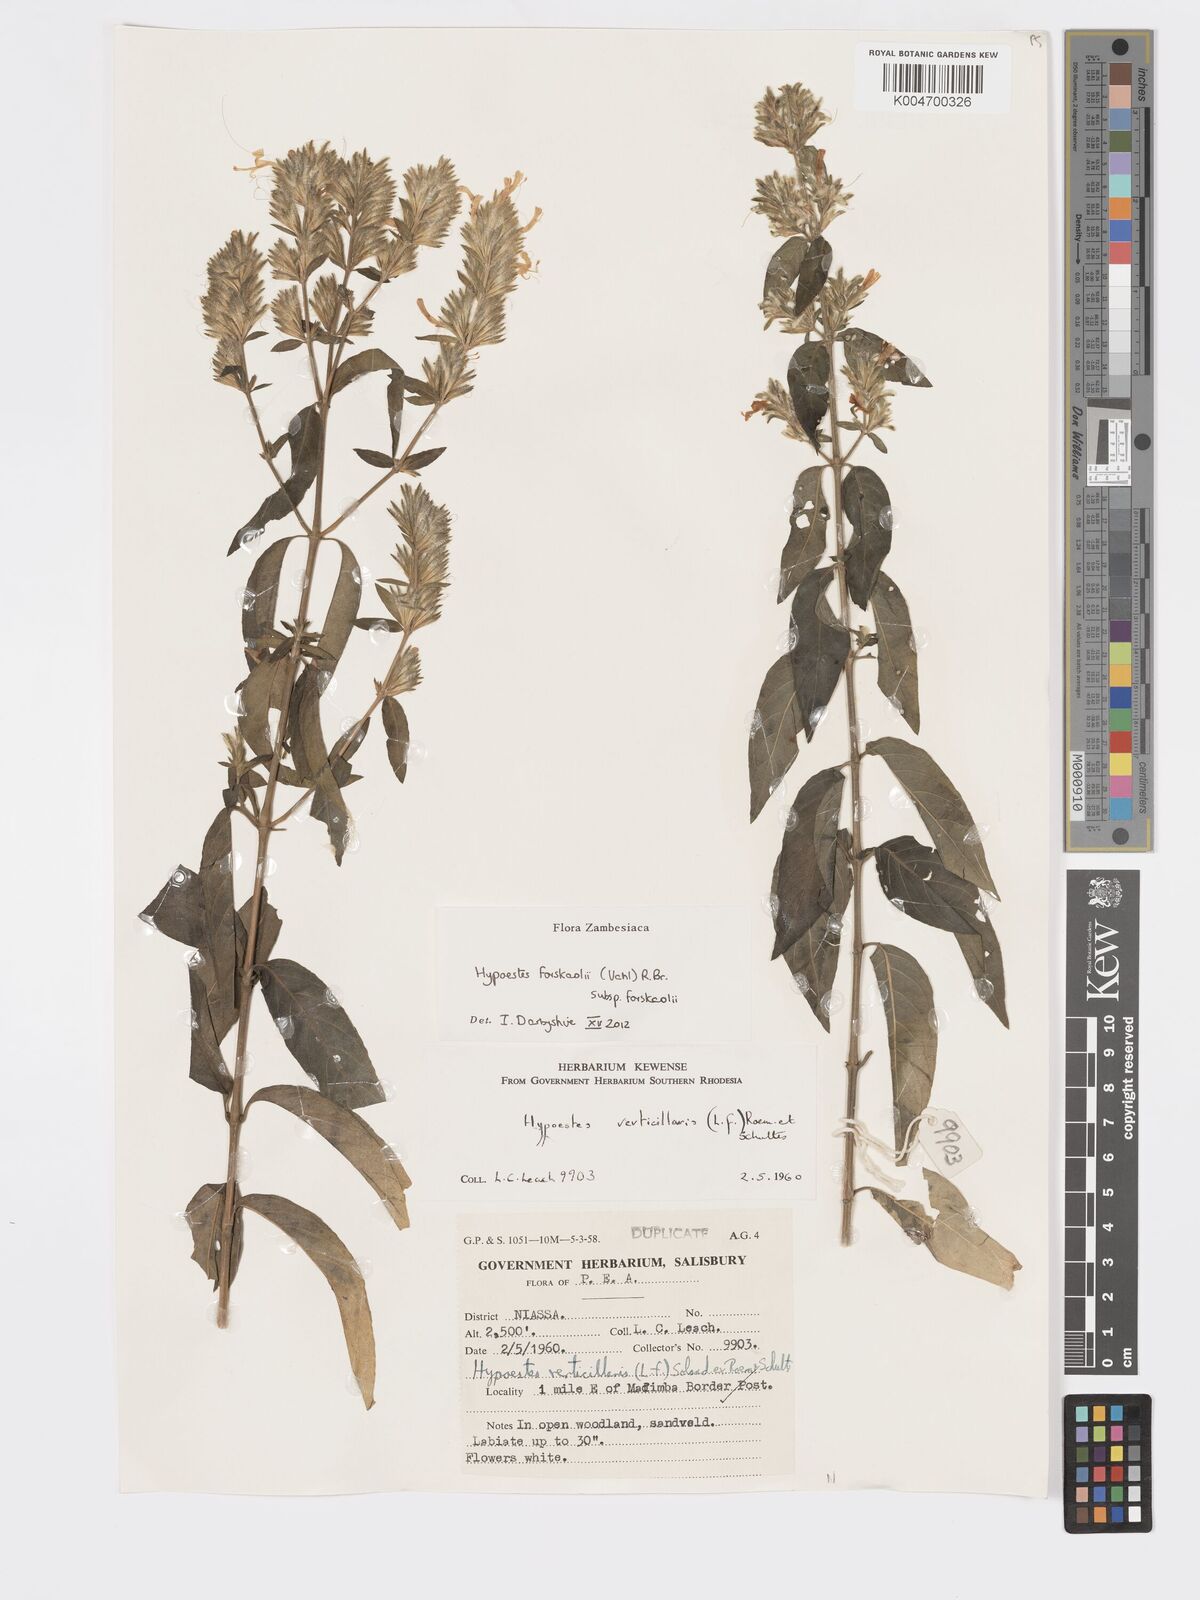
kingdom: Plantae
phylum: Tracheophyta
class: Magnoliopsida
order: Lamiales
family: Acanthaceae
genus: Hypoestes
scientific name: Hypoestes forskaolii
